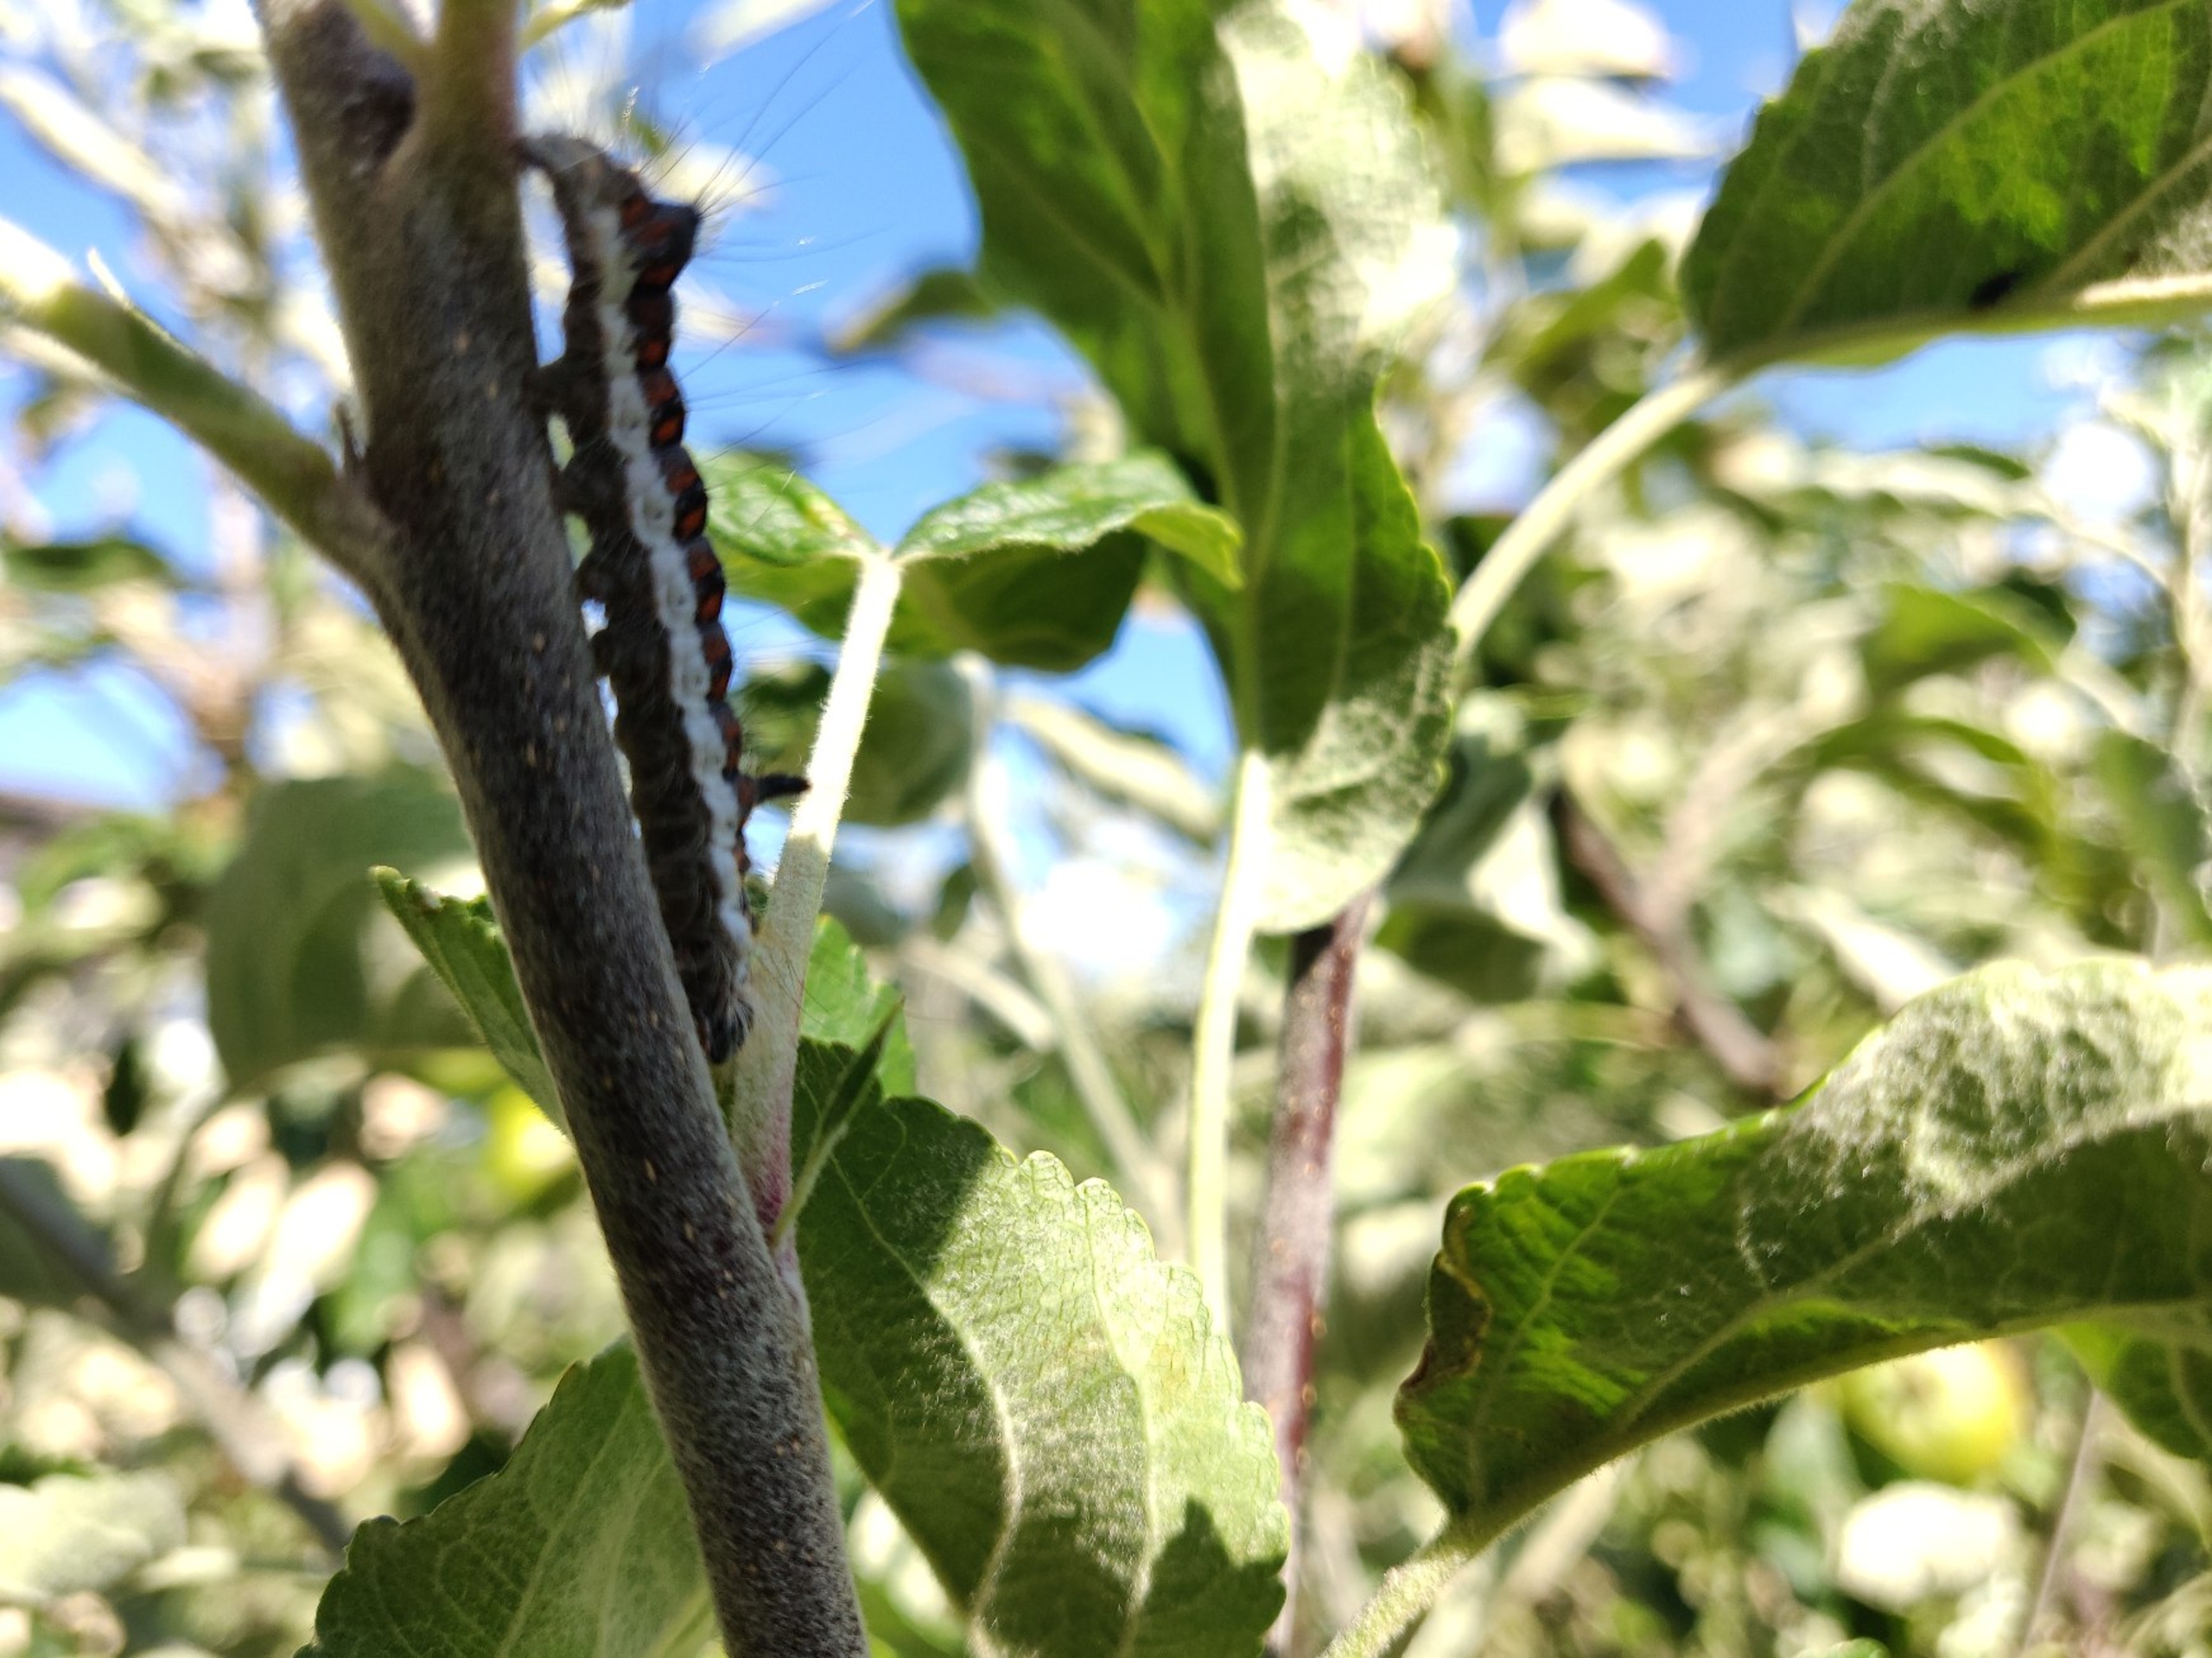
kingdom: Animalia
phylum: Arthropoda
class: Insecta
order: Lepidoptera
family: Noctuidae
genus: Acronicta
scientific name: Acronicta psi
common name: Psi-ugle
